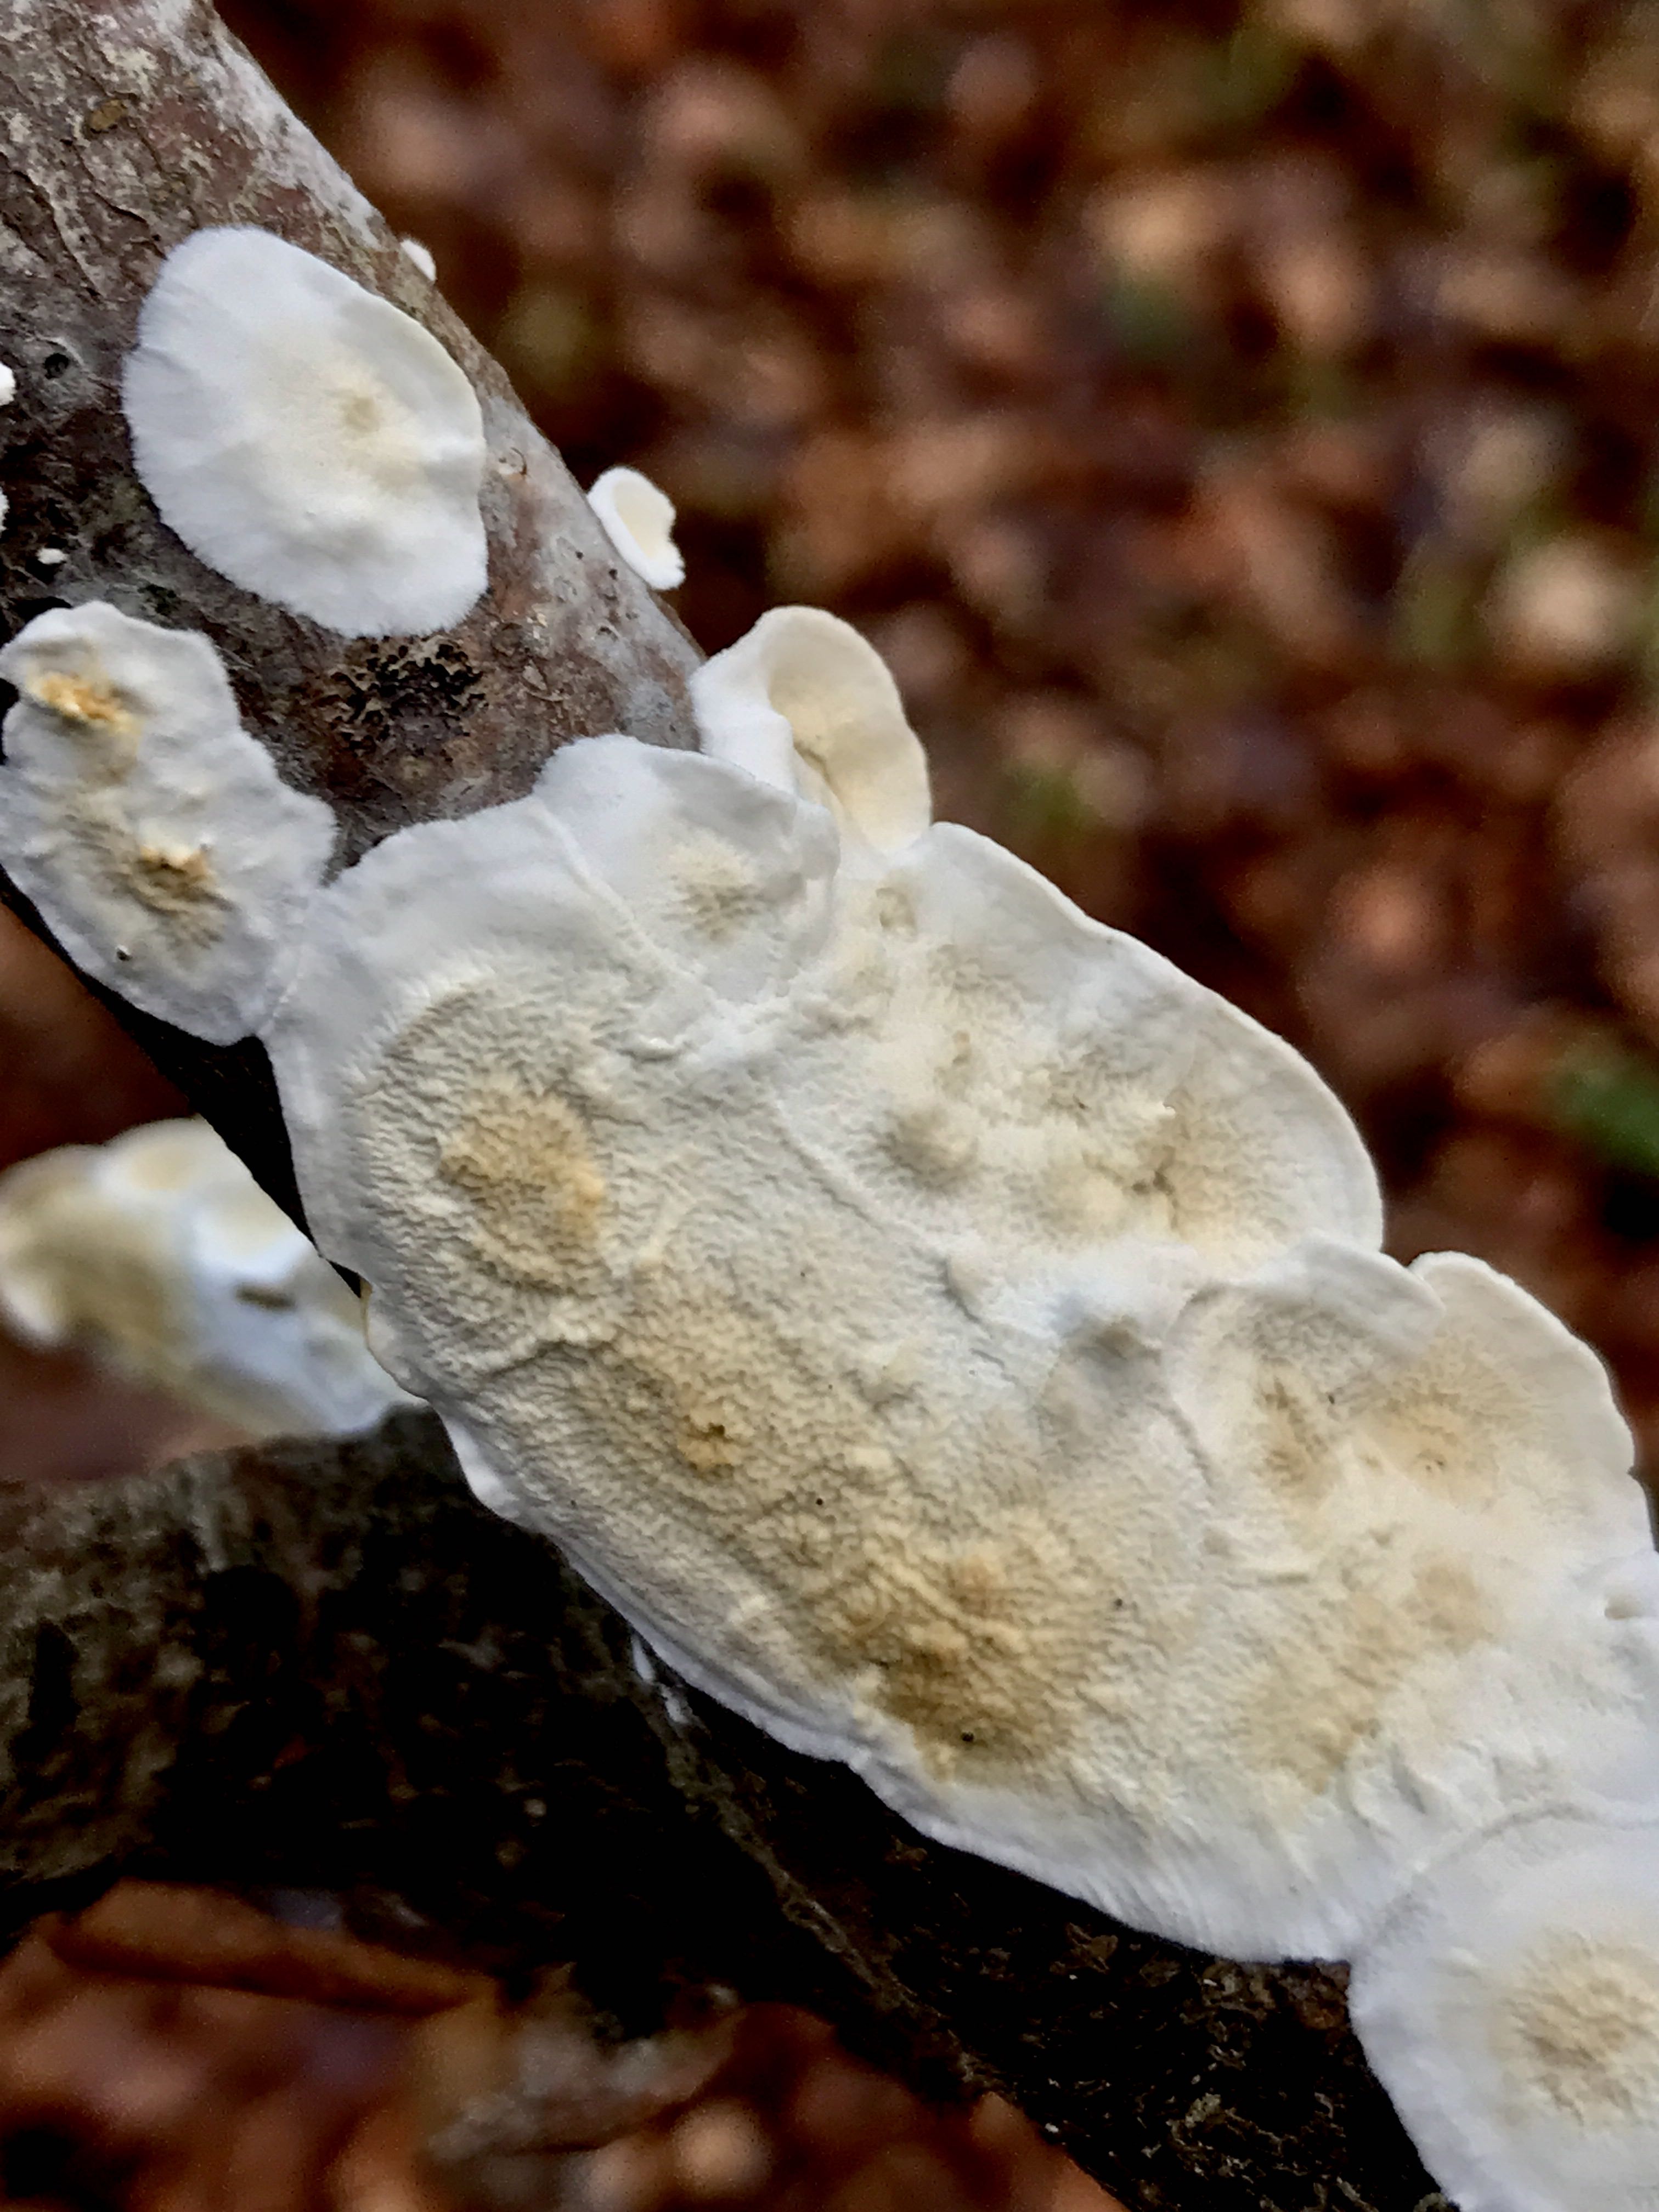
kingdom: Fungi
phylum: Basidiomycota
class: Agaricomycetes
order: Polyporales
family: Irpicaceae
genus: Byssomerulius
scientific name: Byssomerulius corium
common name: læder-åresvamp
